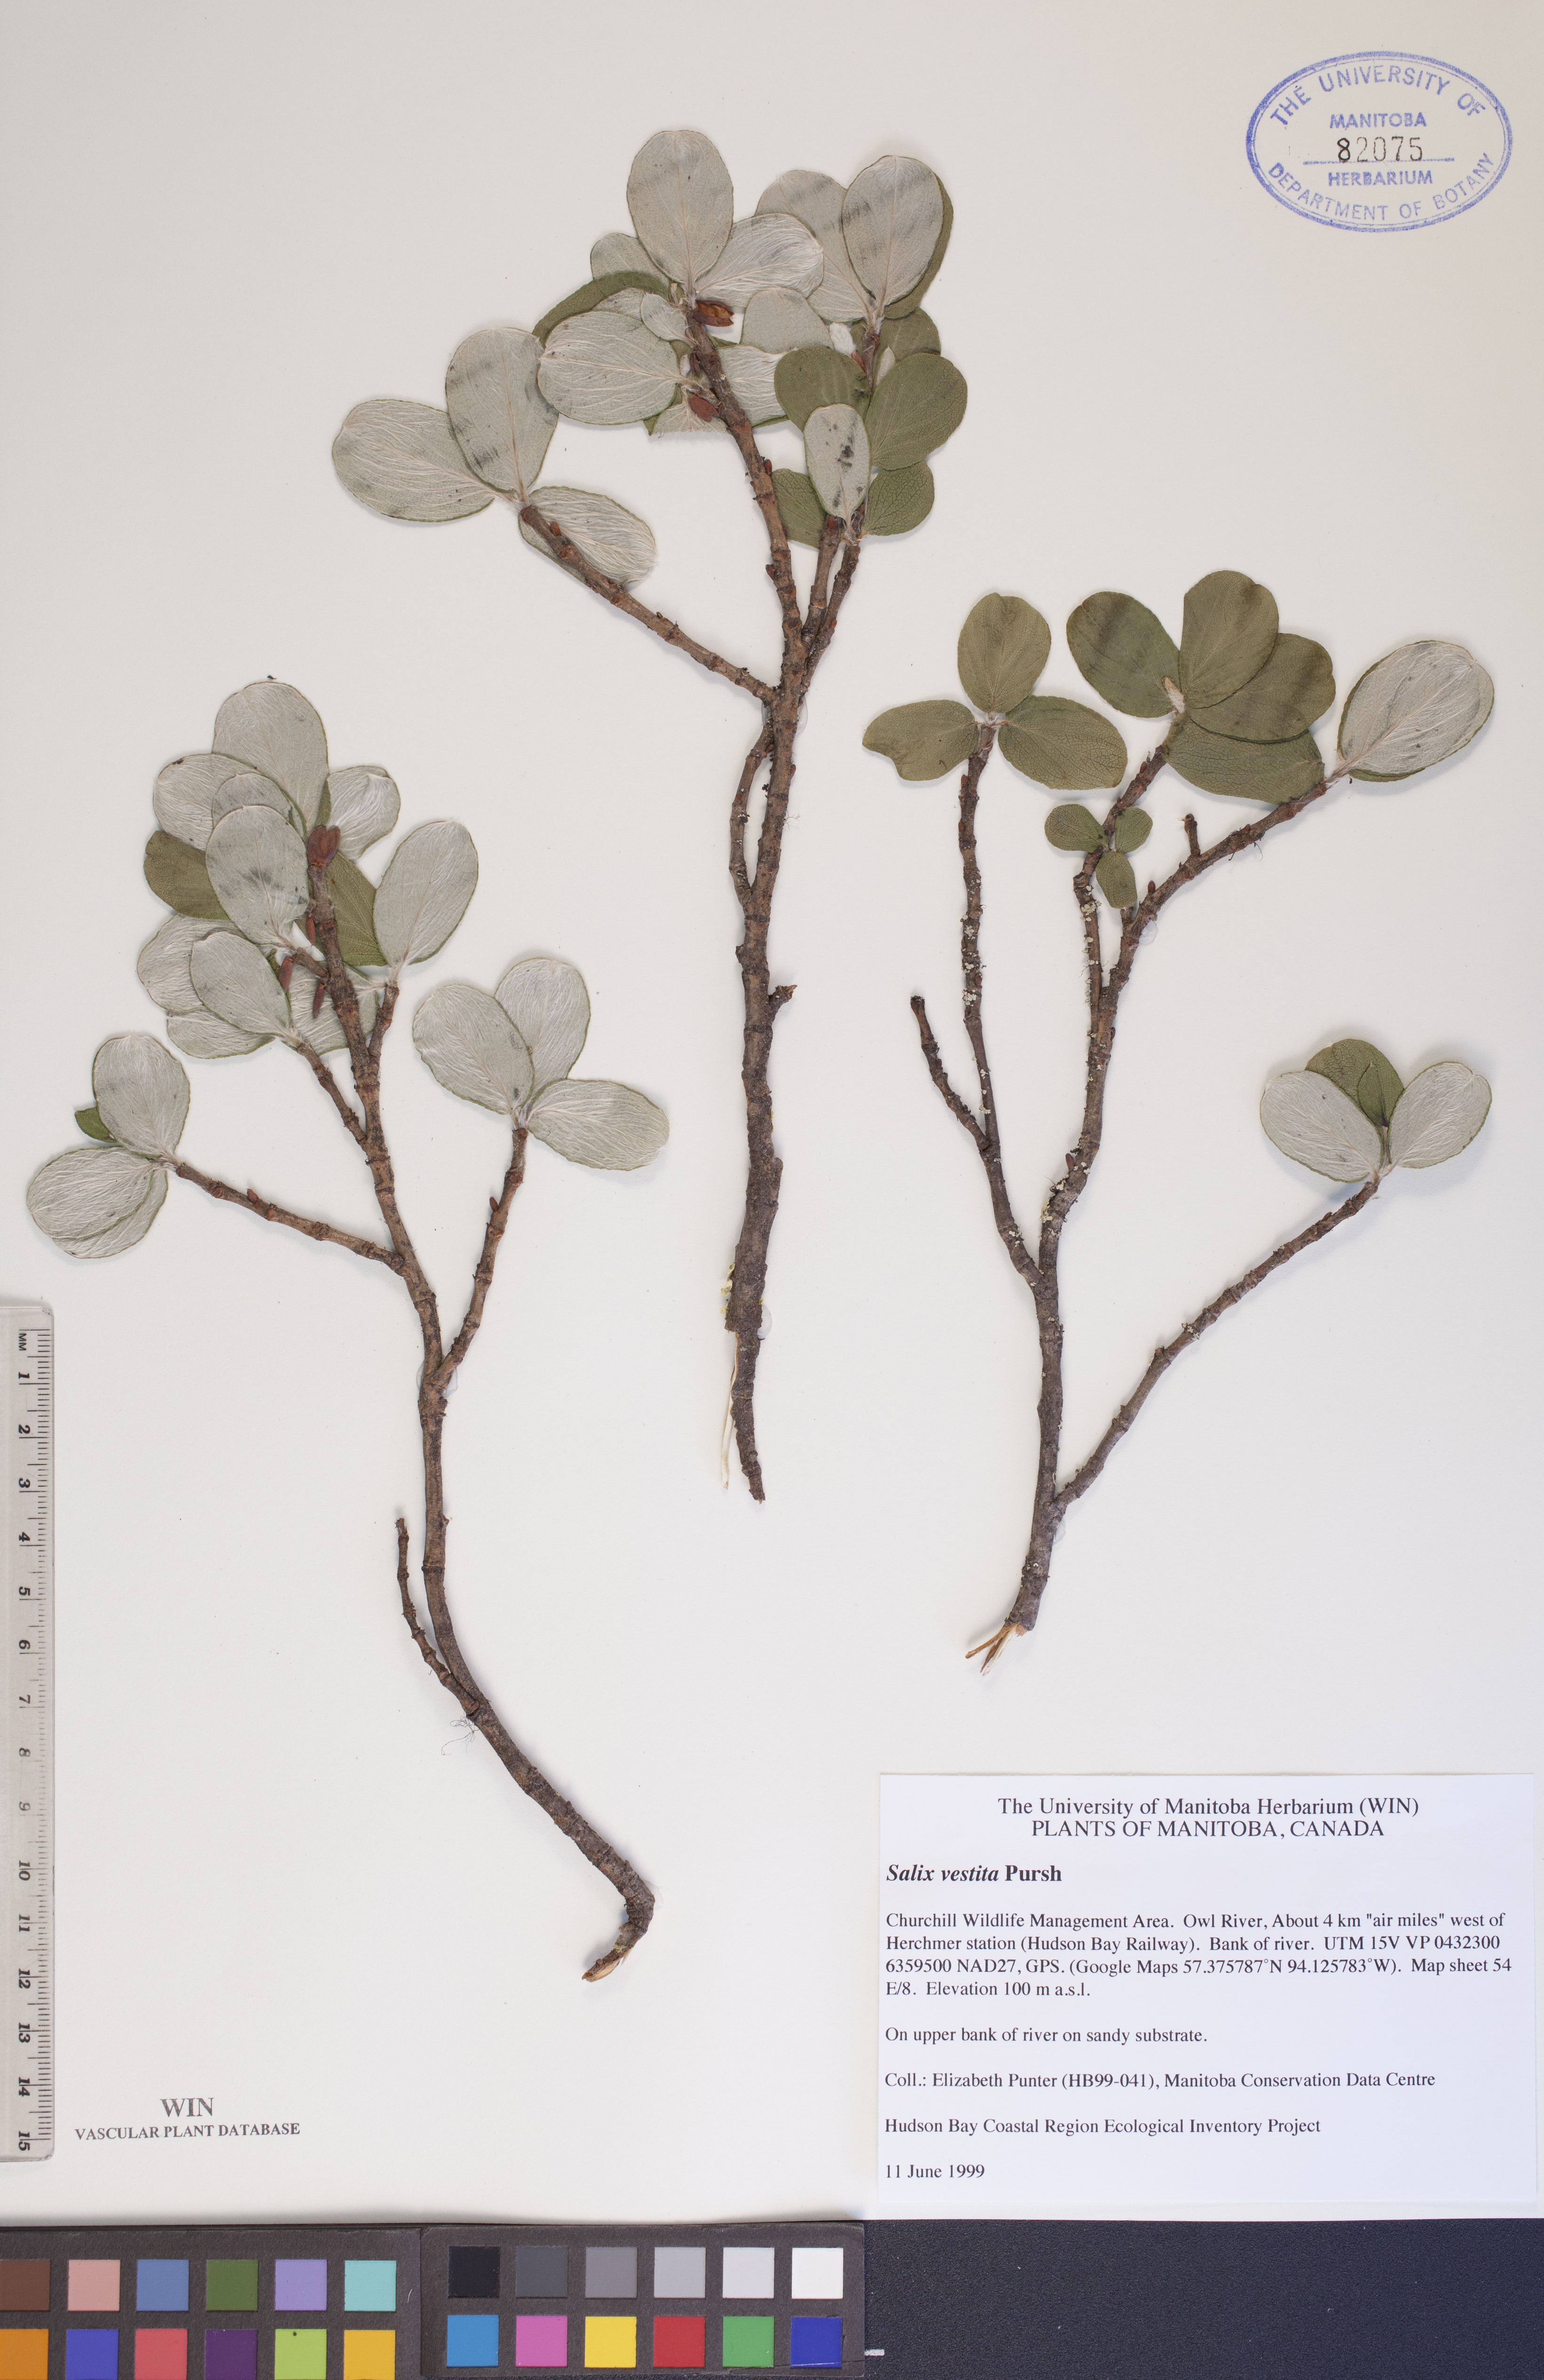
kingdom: Plantae
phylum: Tracheophyta
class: Magnoliopsida
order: Malpighiales
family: Salicaceae
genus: Salix
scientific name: Salix vestita
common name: Hairy willow
